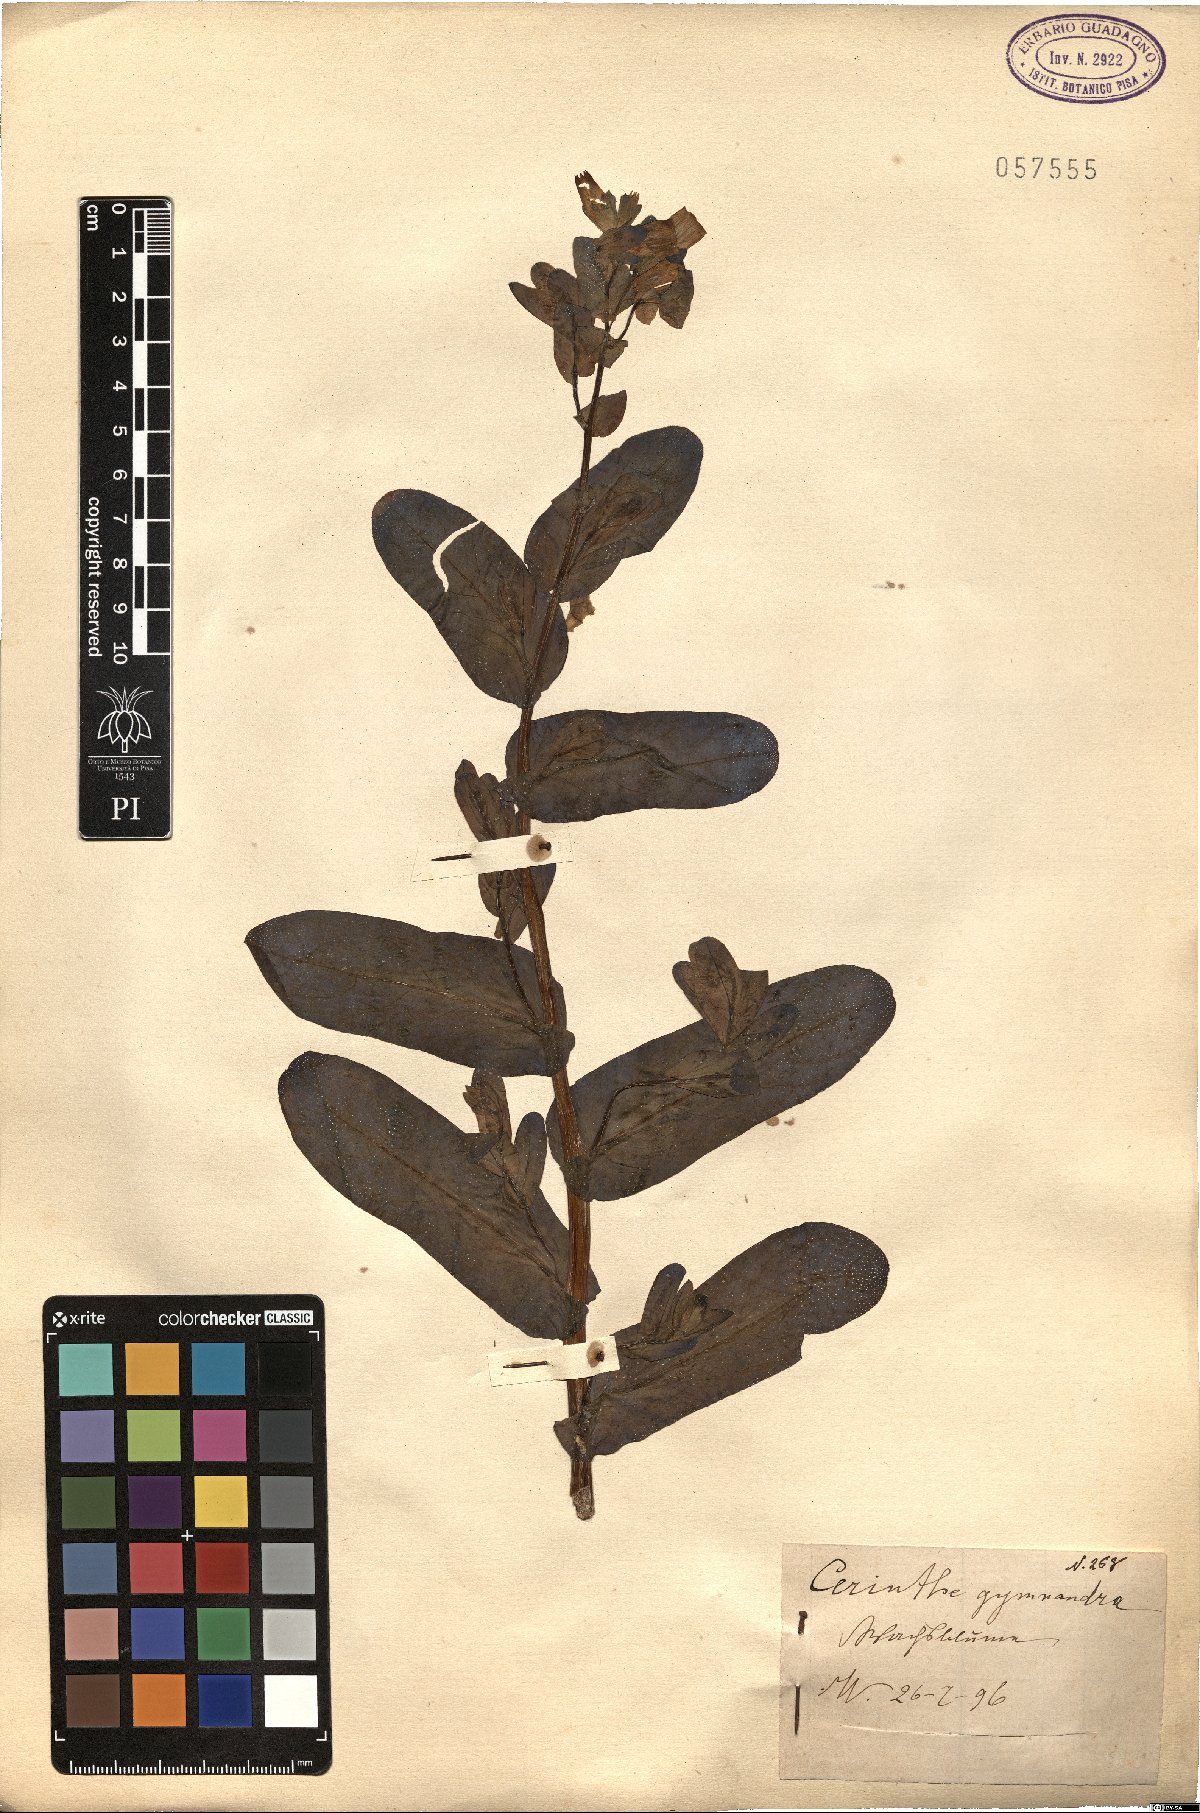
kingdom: Plantae
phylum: Tracheophyta
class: Magnoliopsida
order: Boraginales
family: Boraginaceae
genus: Cerinthe
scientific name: Cerinthe major
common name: Greater honeywort
